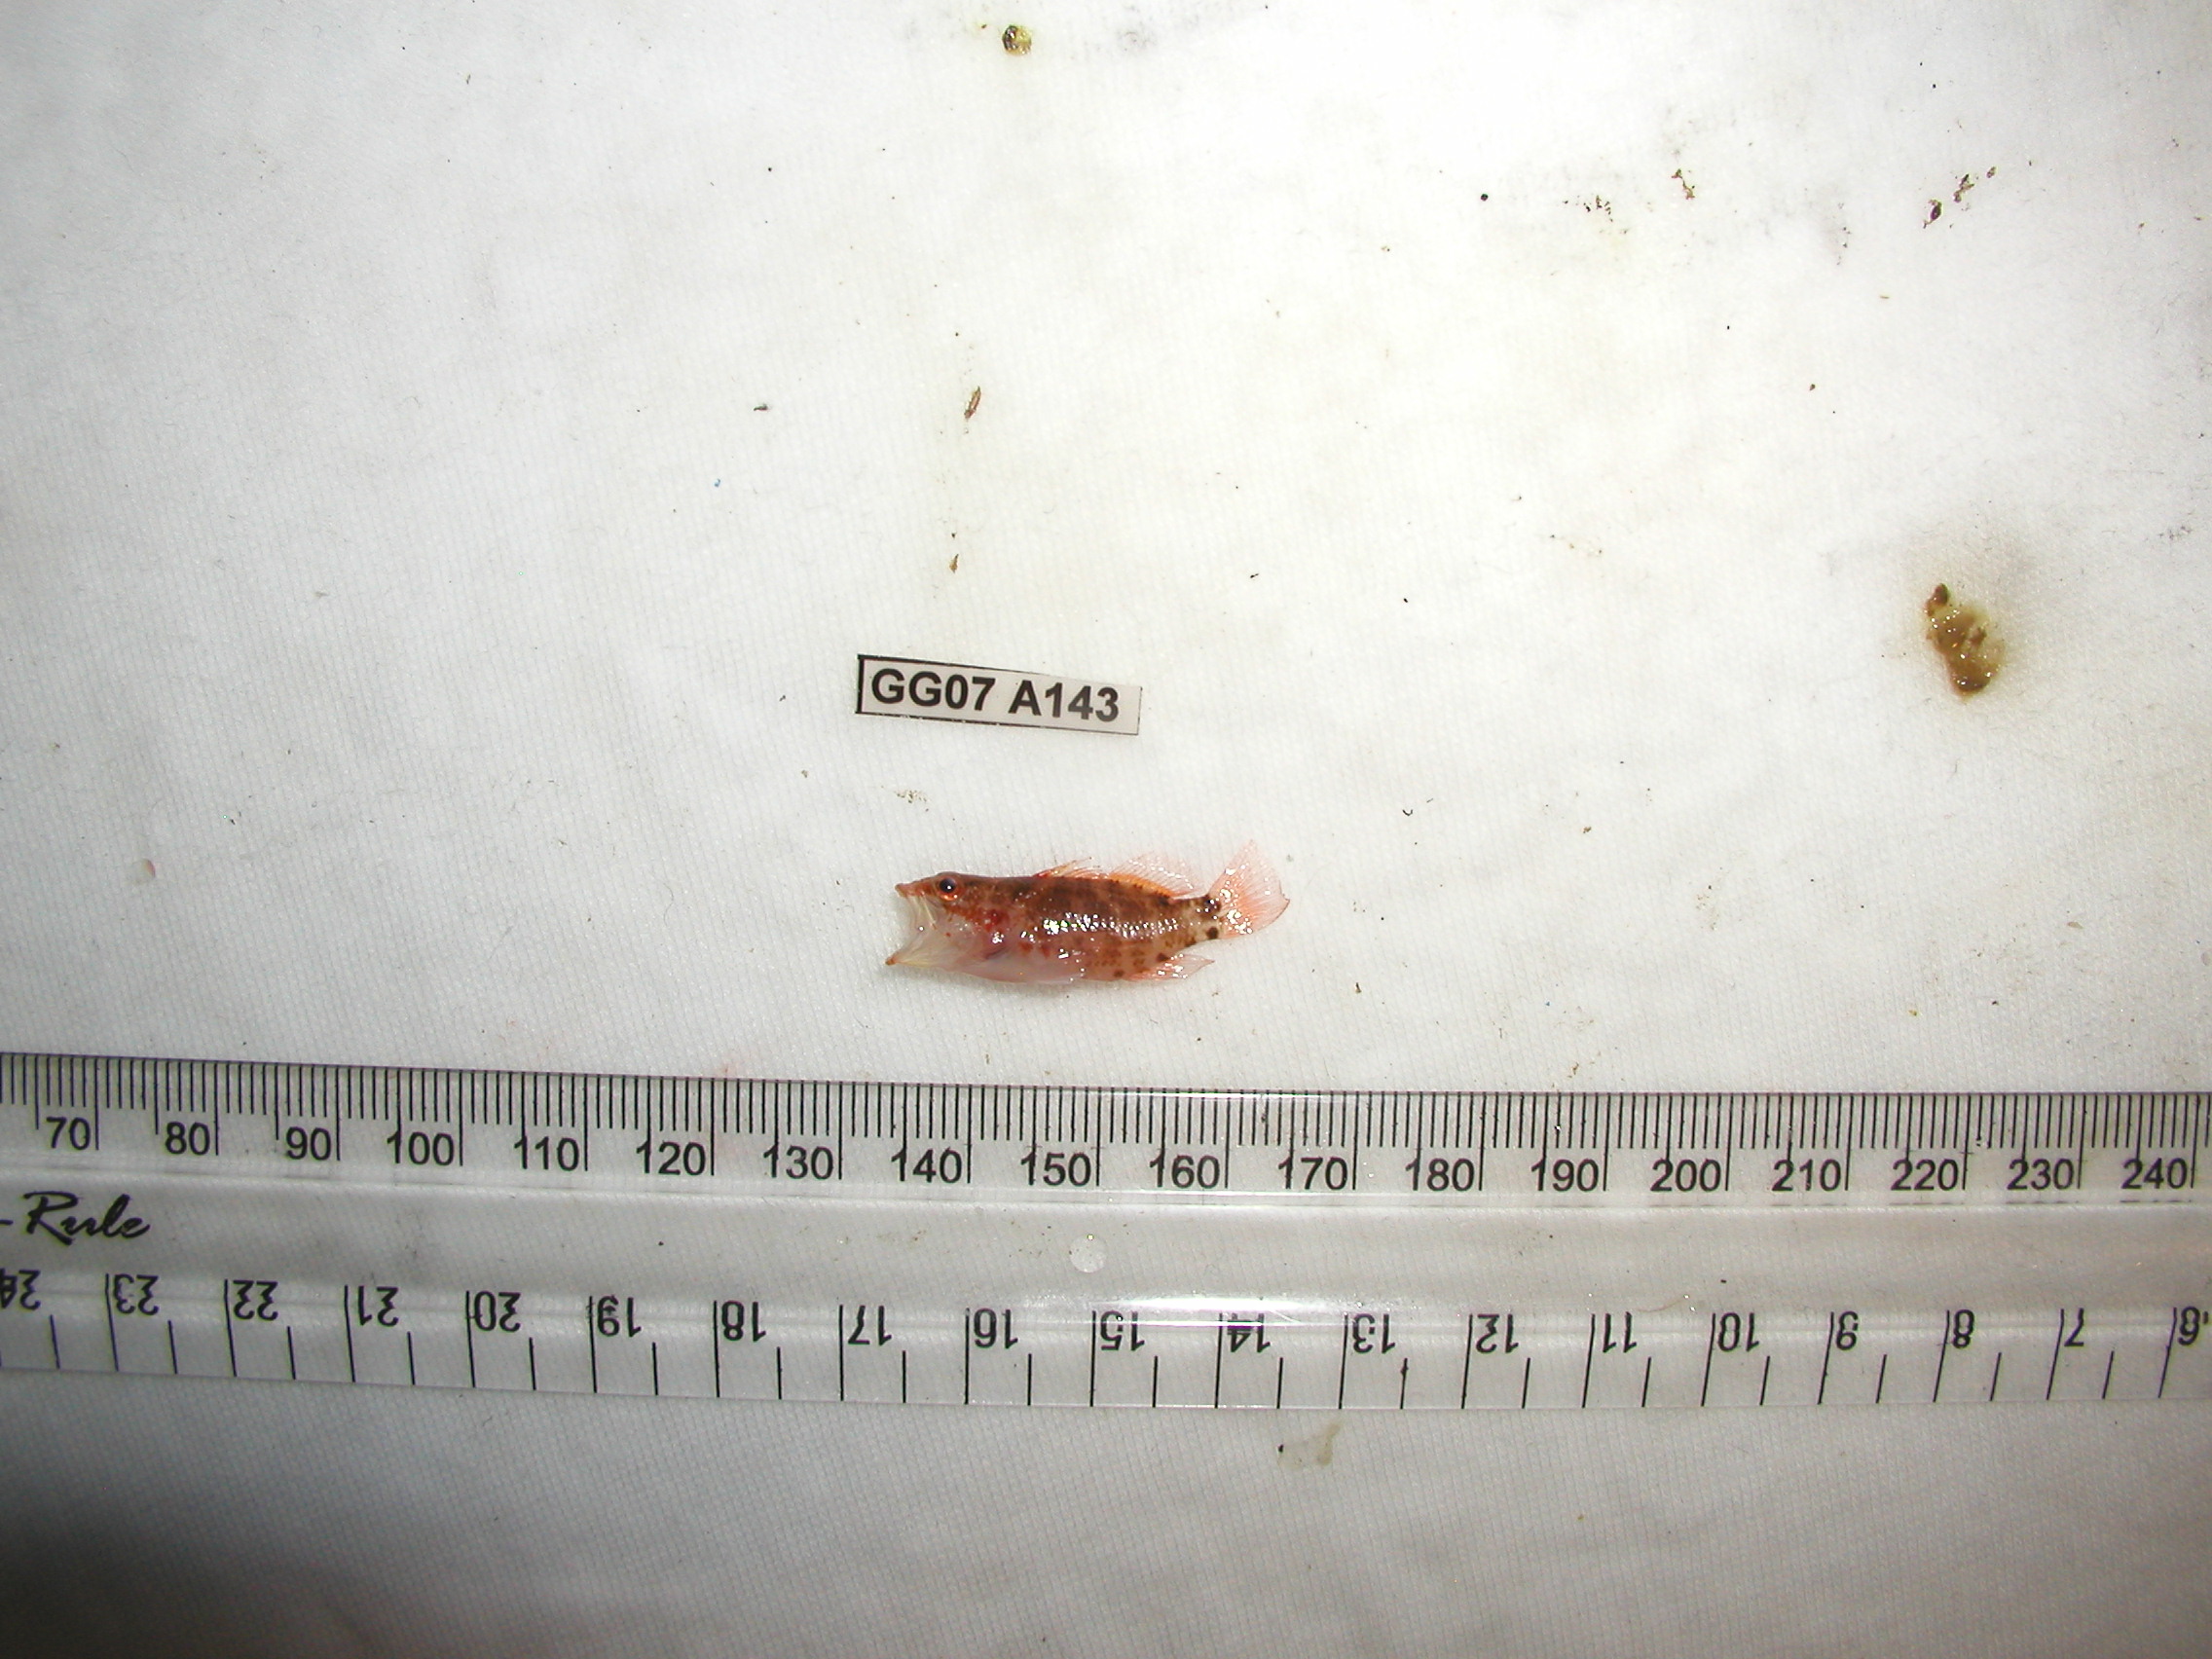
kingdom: Animalia
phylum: Chordata
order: Perciformes
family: Serranidae
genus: Plectranthias
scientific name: Plectranthias longimanus
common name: Longfin perchlet
